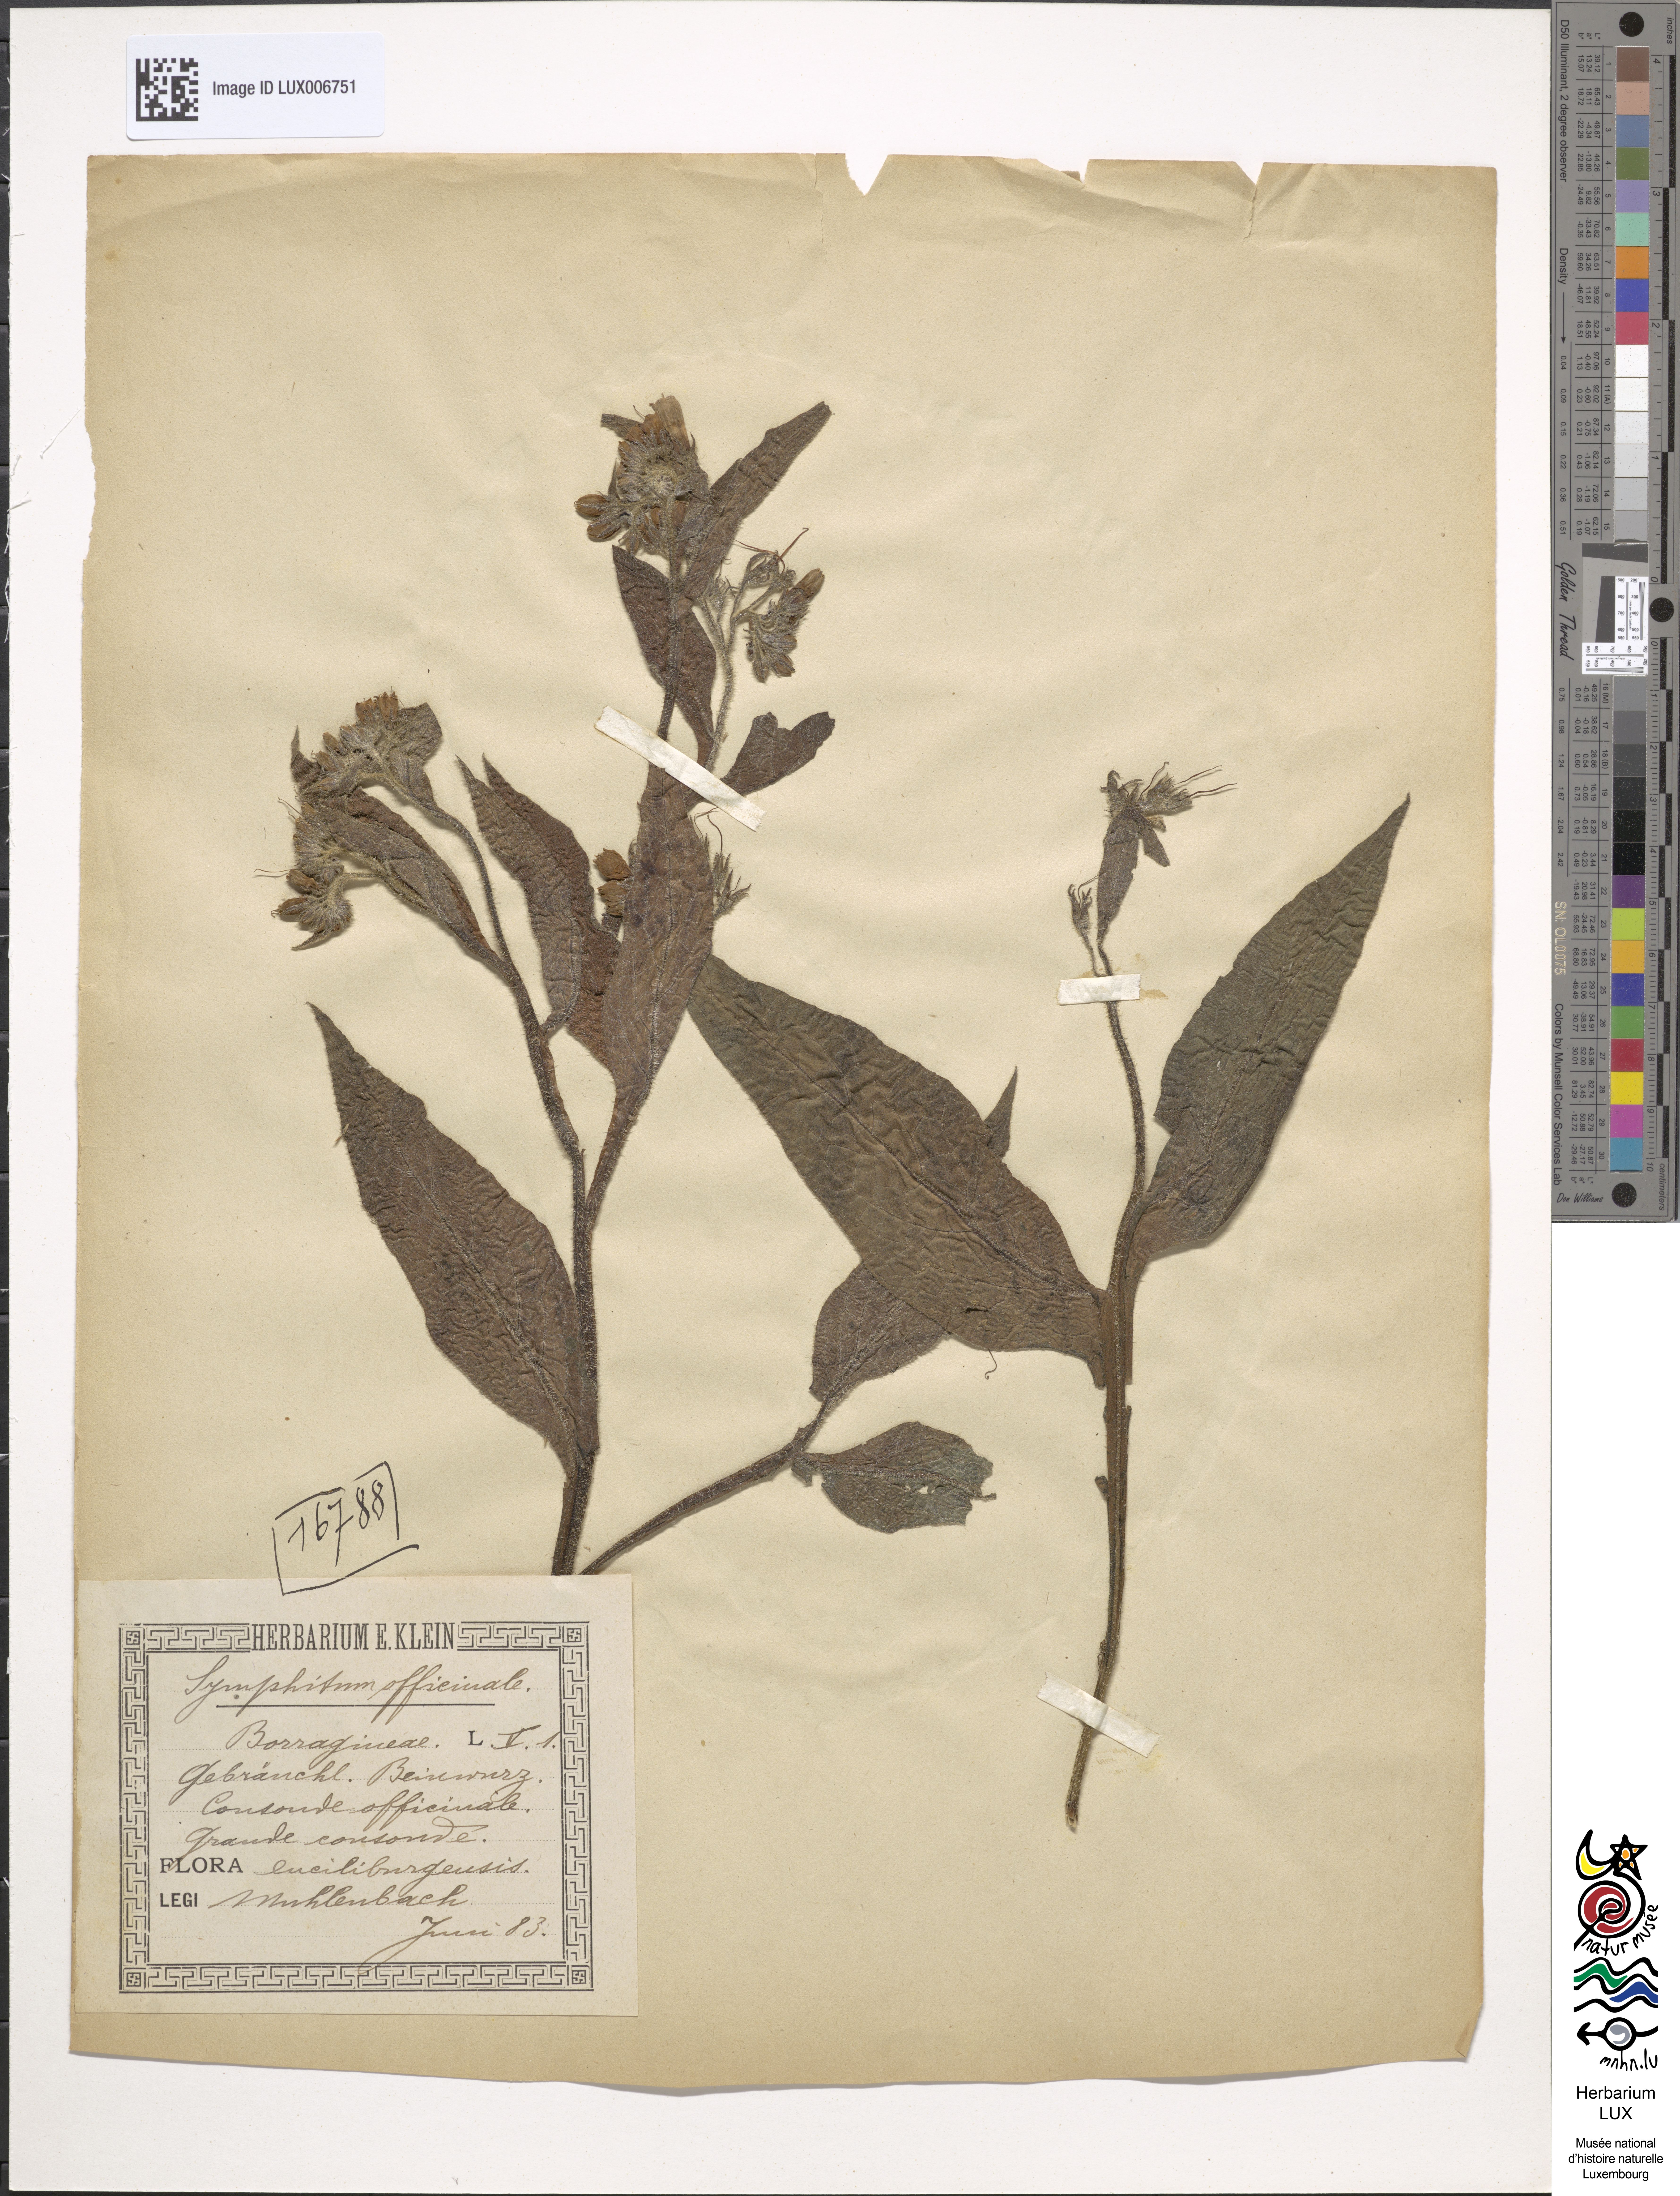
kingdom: Plantae
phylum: Tracheophyta
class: Magnoliopsida
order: Boraginales
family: Boraginaceae
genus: Symphytum
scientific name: Symphytum officinale
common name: Common comfrey
